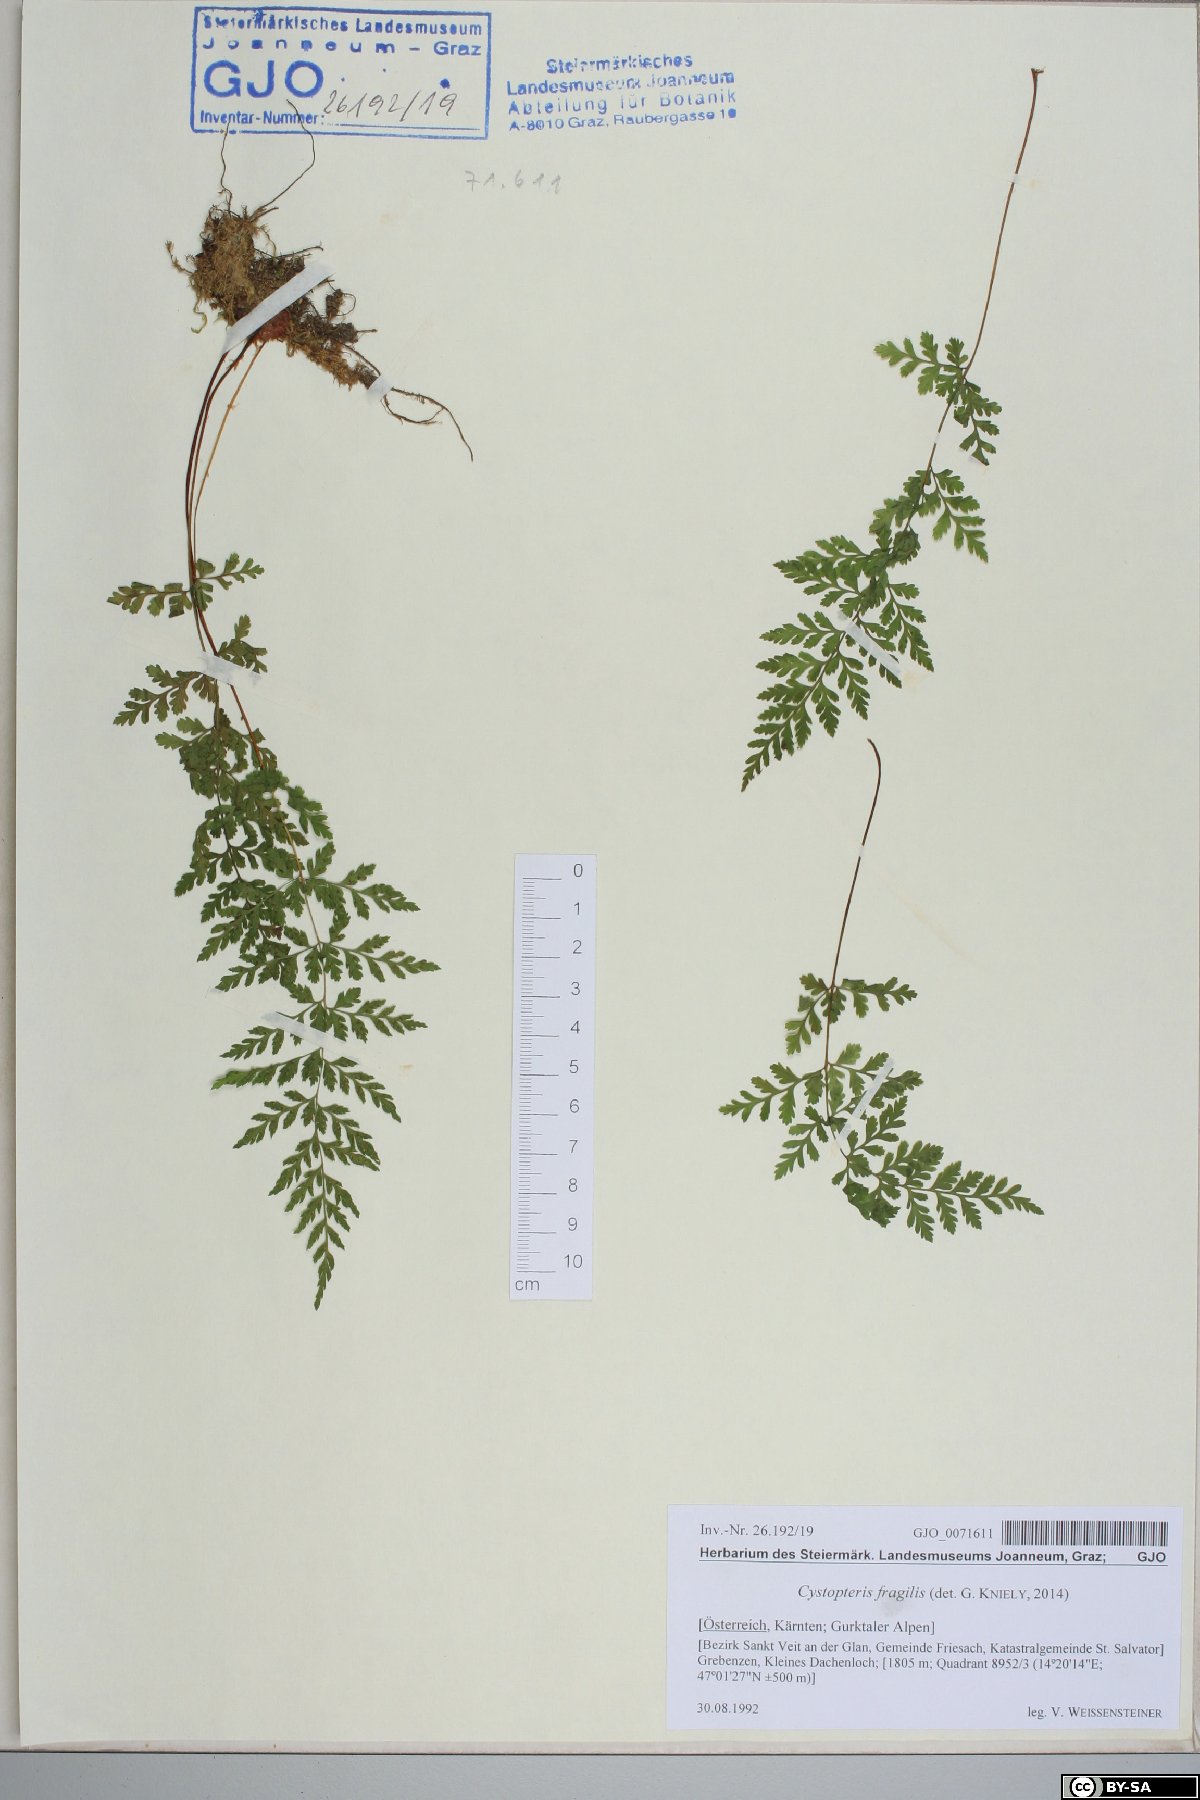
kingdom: Plantae
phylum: Tracheophyta
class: Polypodiopsida
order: Polypodiales
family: Cystopteridaceae
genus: Cystopteris
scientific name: Cystopteris fragilis
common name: Brittle bladder fern
